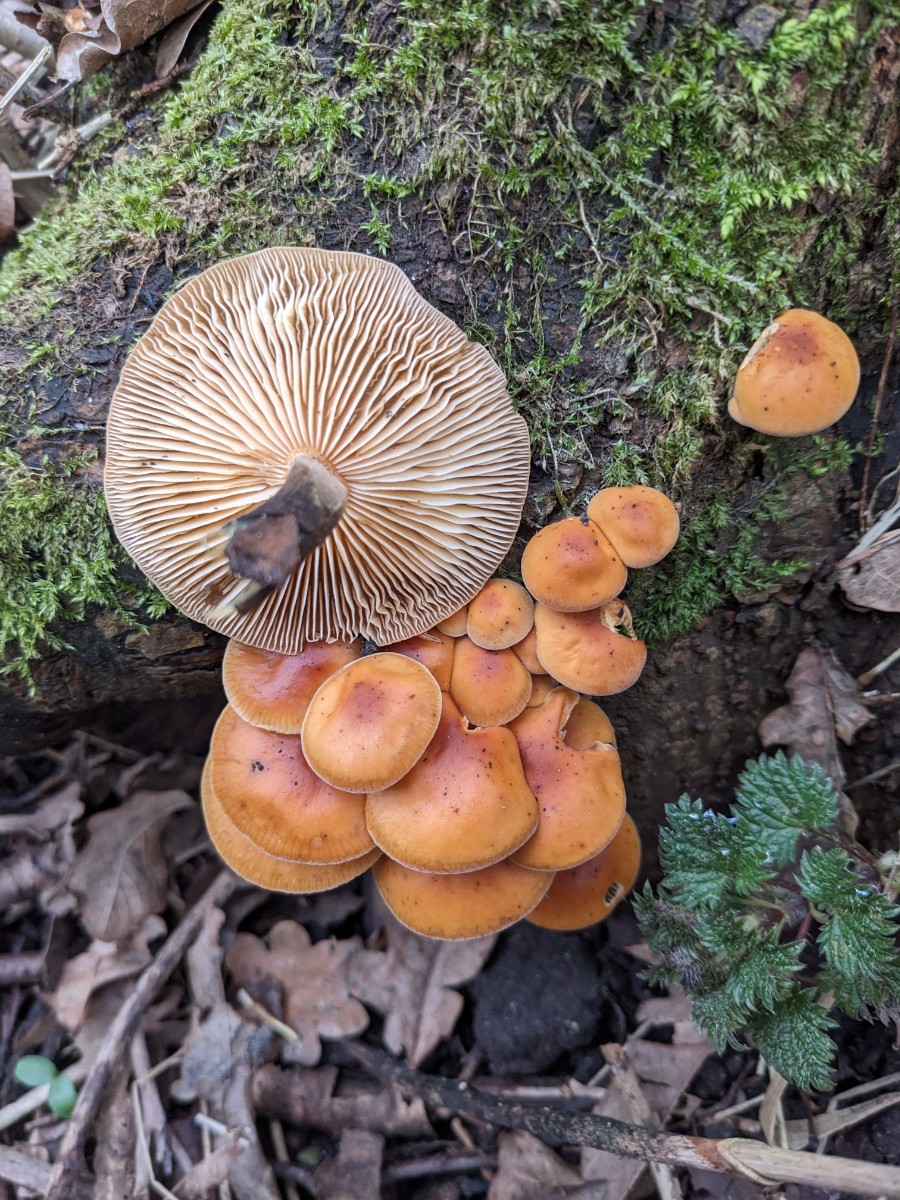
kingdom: Fungi
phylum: Basidiomycota
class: Agaricomycetes
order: Agaricales
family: Physalacriaceae
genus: Flammulina
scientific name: Flammulina velutipes
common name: gul fløjlsfod
